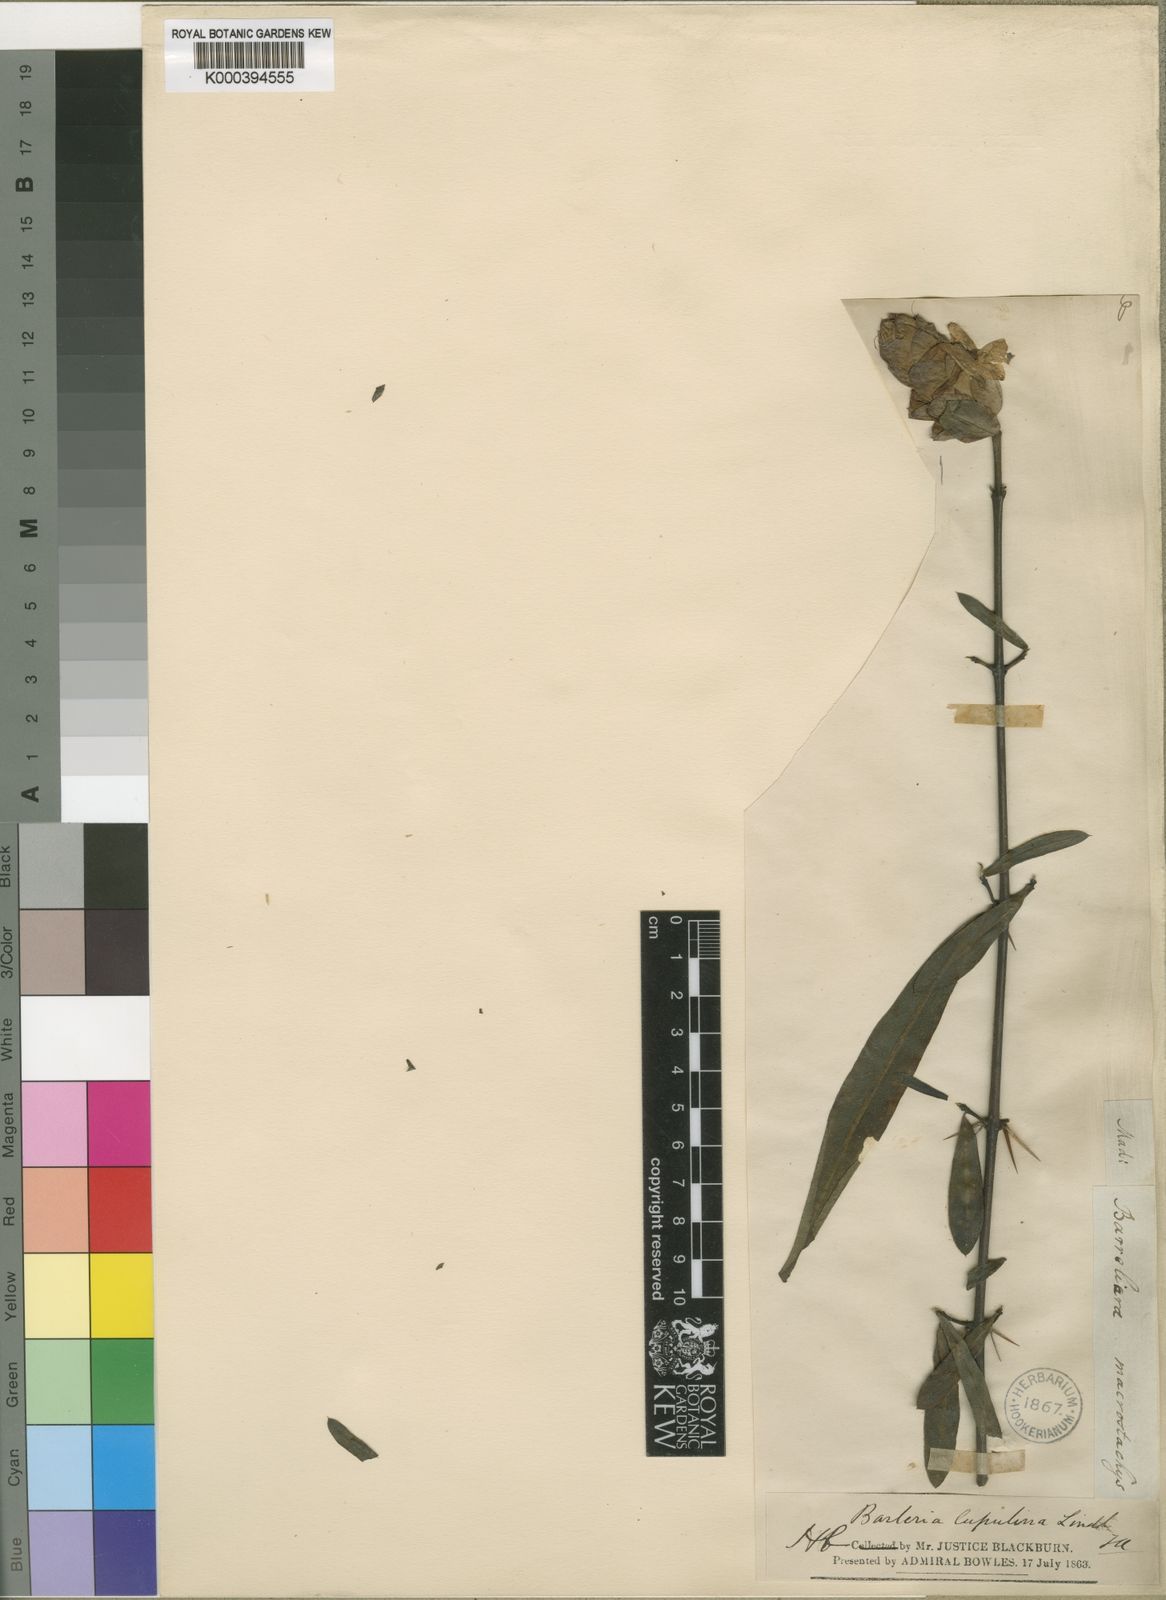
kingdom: Plantae
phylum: Tracheophyta
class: Magnoliopsida
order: Lamiales
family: Acanthaceae
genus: Barleria
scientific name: Barleria lupulina
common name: Hophead philippine violet
